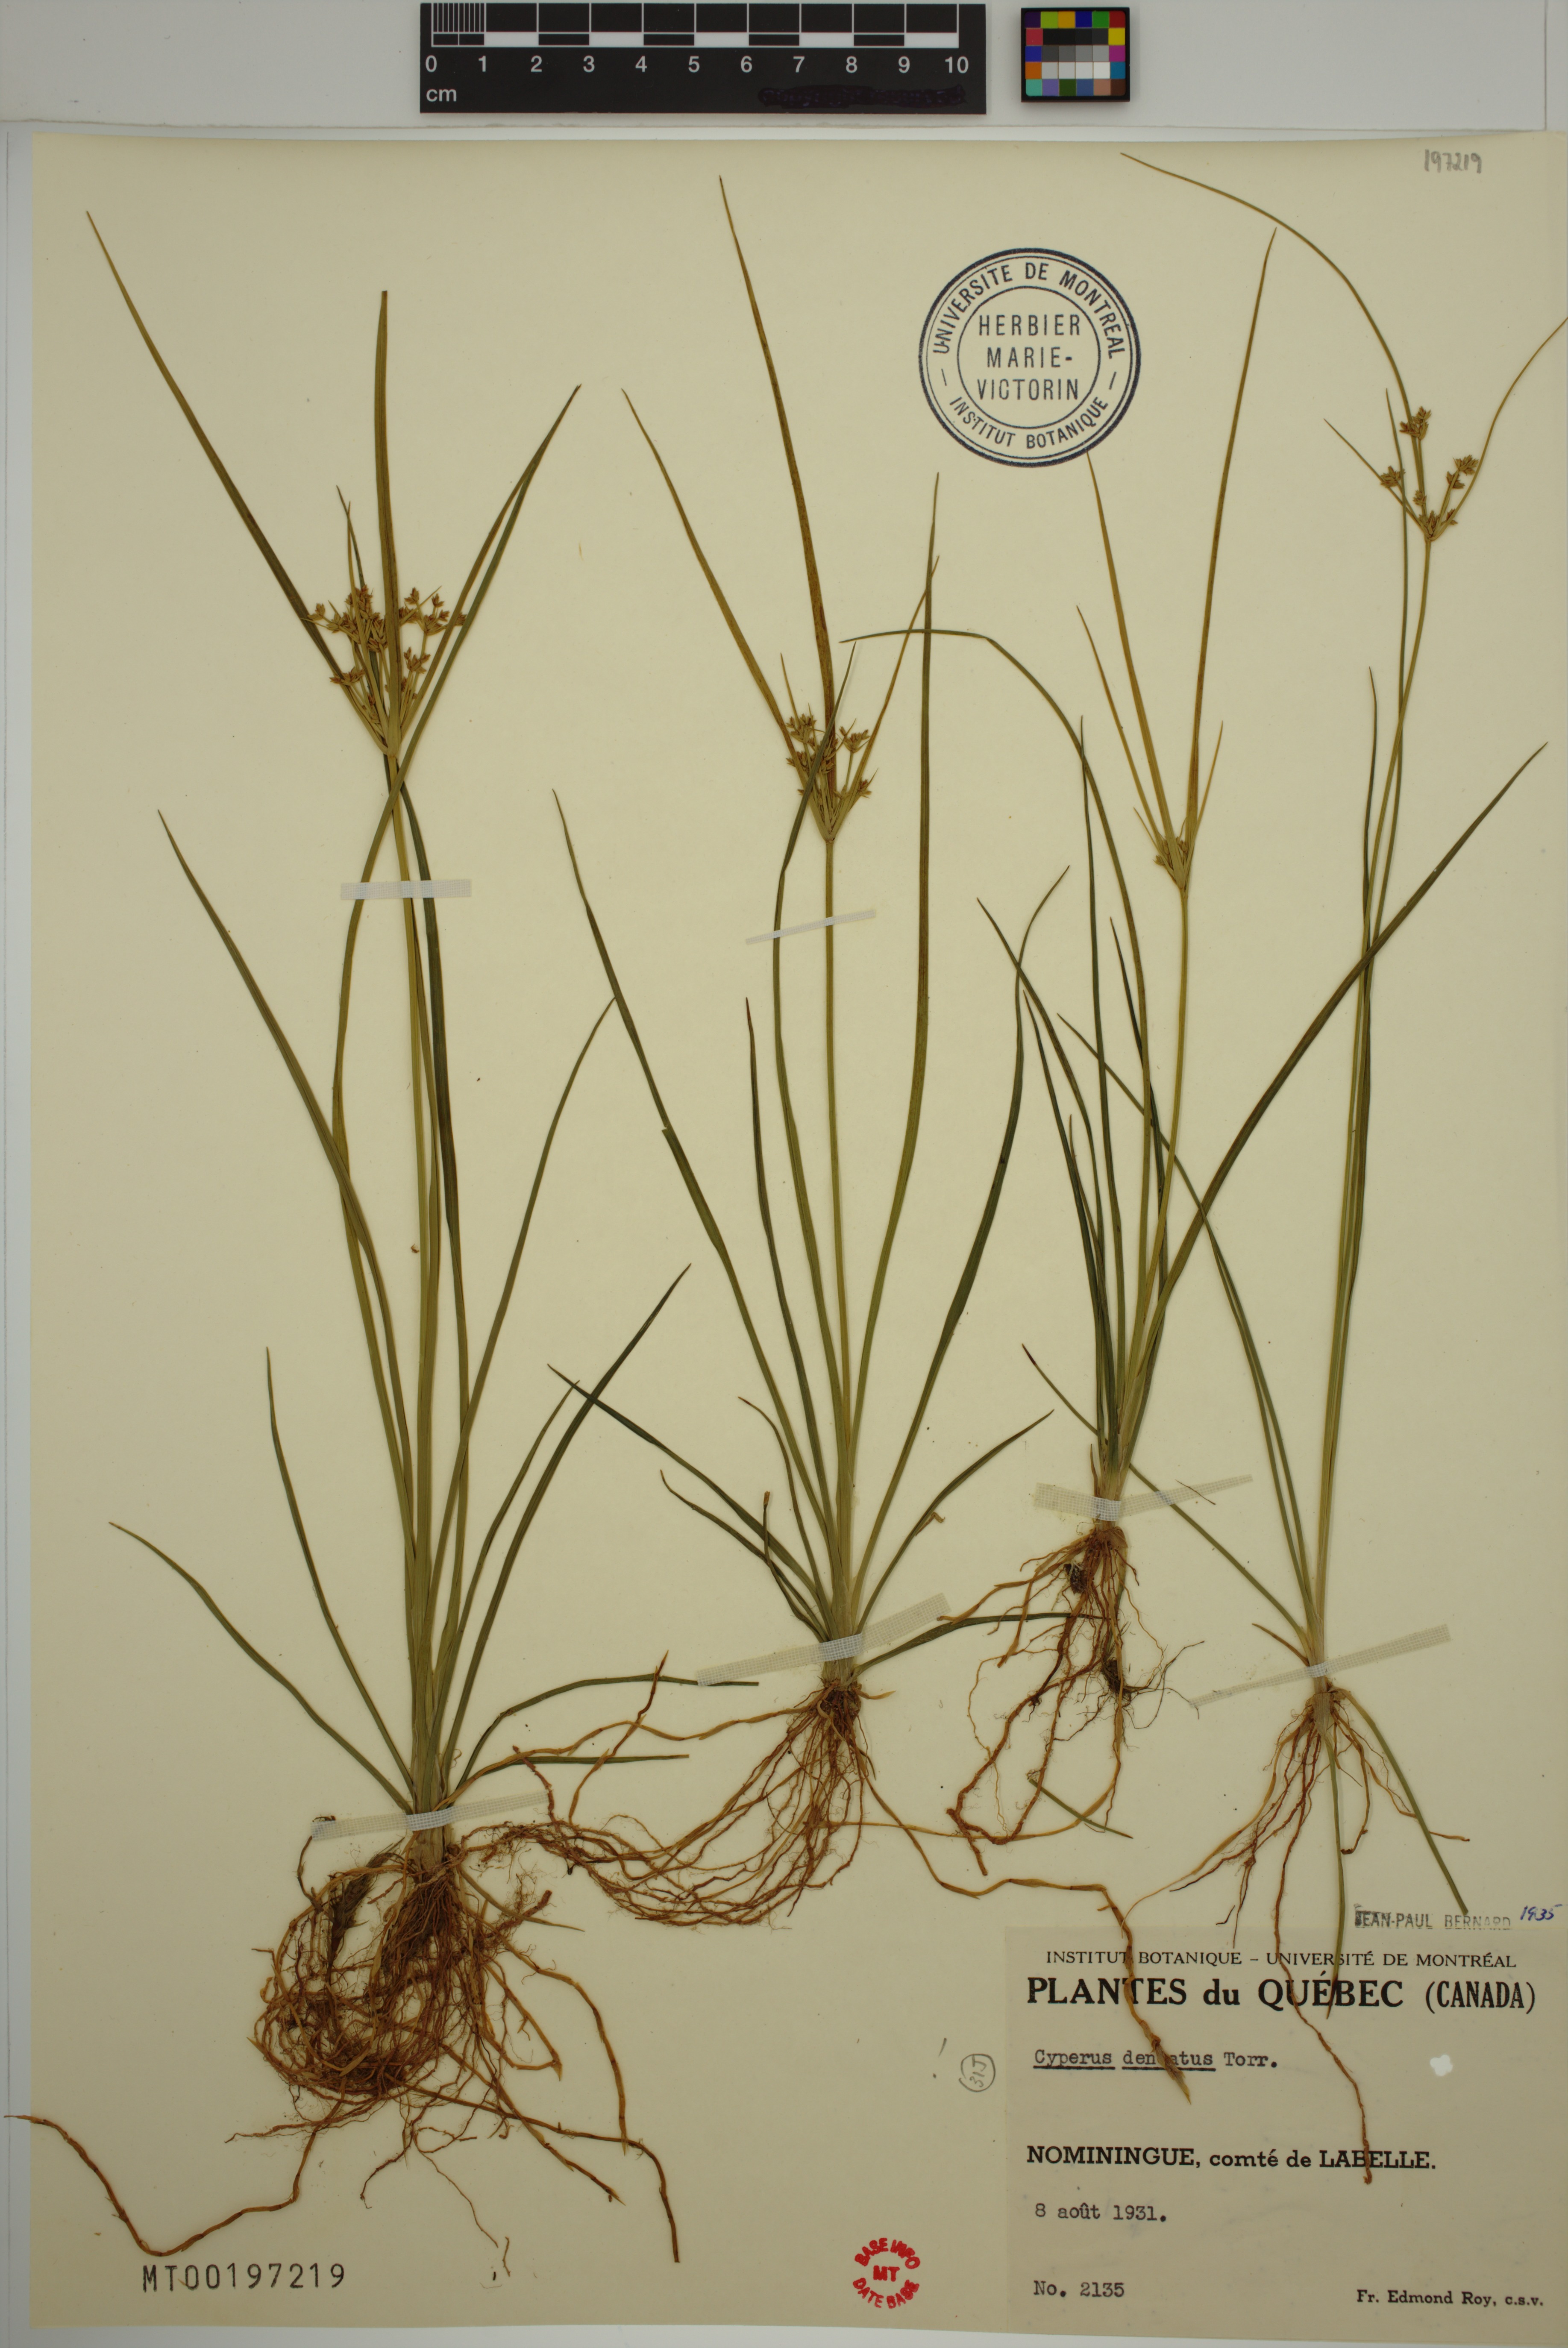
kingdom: Plantae
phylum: Tracheophyta
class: Liliopsida
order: Poales
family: Cyperaceae
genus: Cyperus
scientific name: Cyperus dentatus
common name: Dentate umbrella sedge
